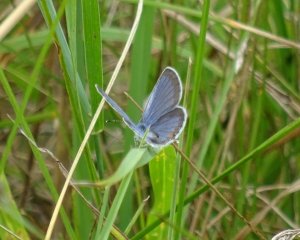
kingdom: Animalia
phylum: Arthropoda
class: Insecta
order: Lepidoptera
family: Lycaenidae
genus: Elkalyce
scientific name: Elkalyce comyntas
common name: Eastern Tailed-Blue
